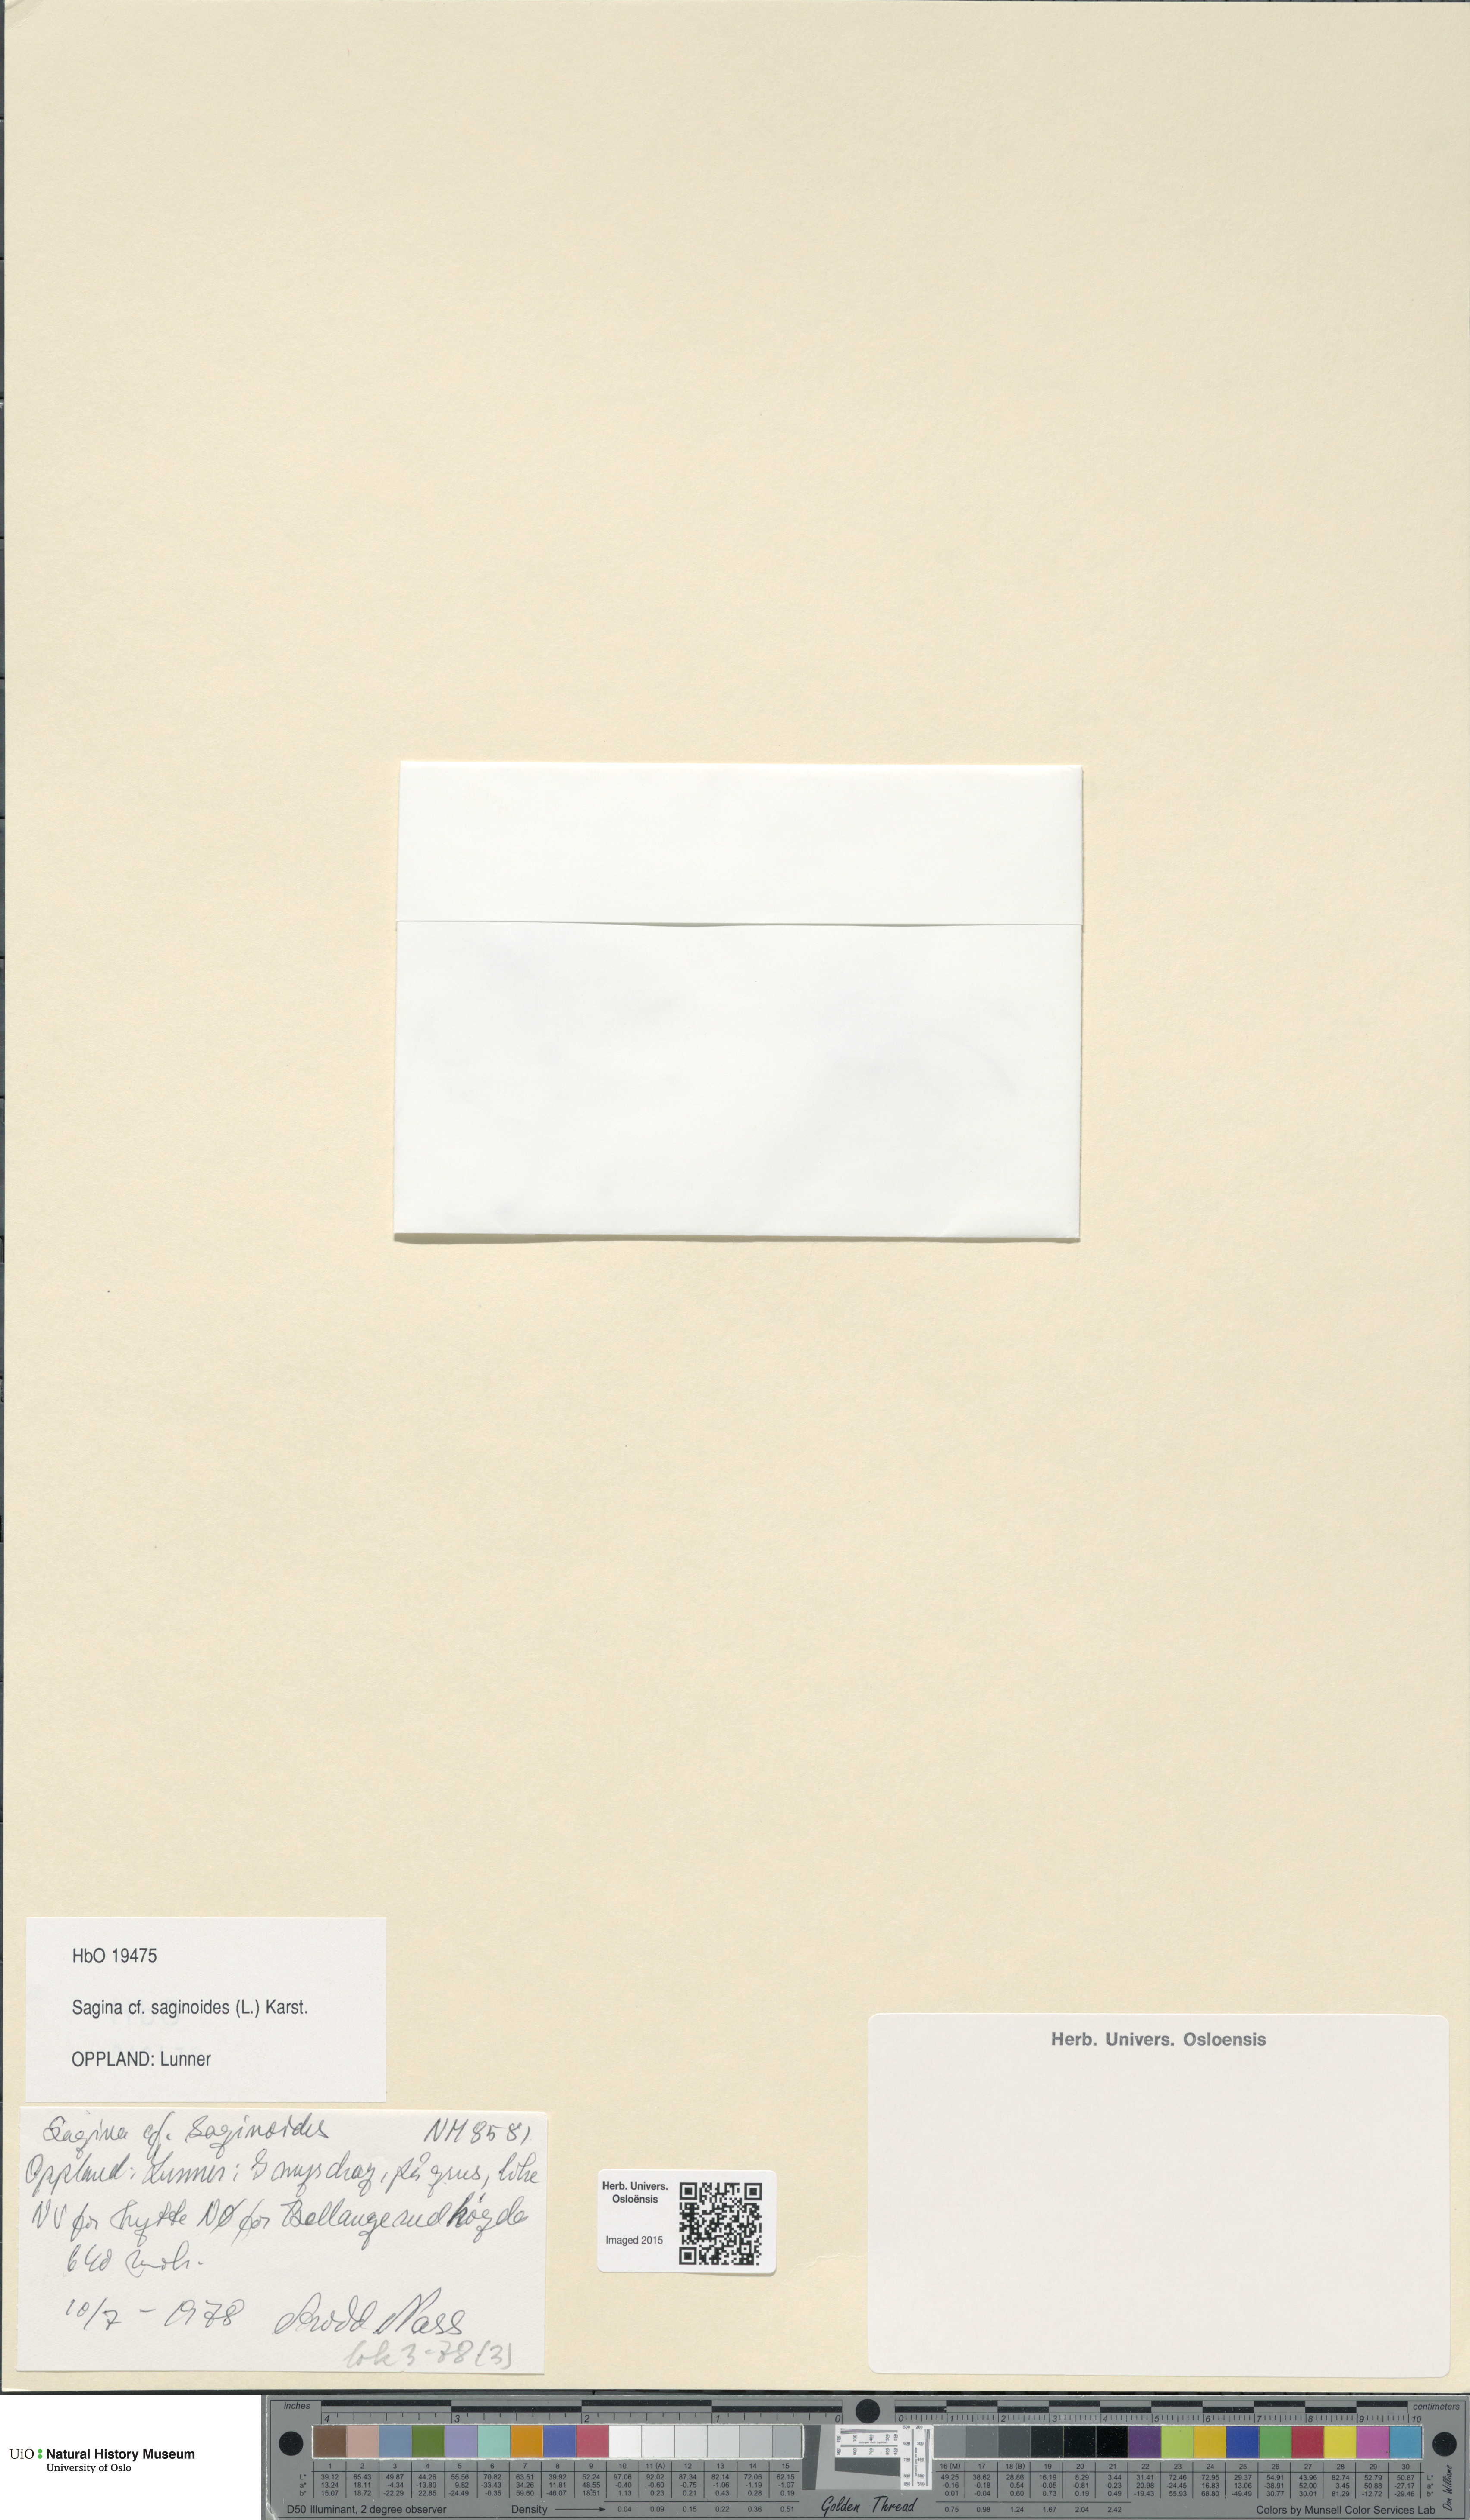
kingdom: Plantae
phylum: Tracheophyta
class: Magnoliopsida
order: Caryophyllales
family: Caryophyllaceae
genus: Sagina
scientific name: Sagina saginoides
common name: Alpine pearlwort
